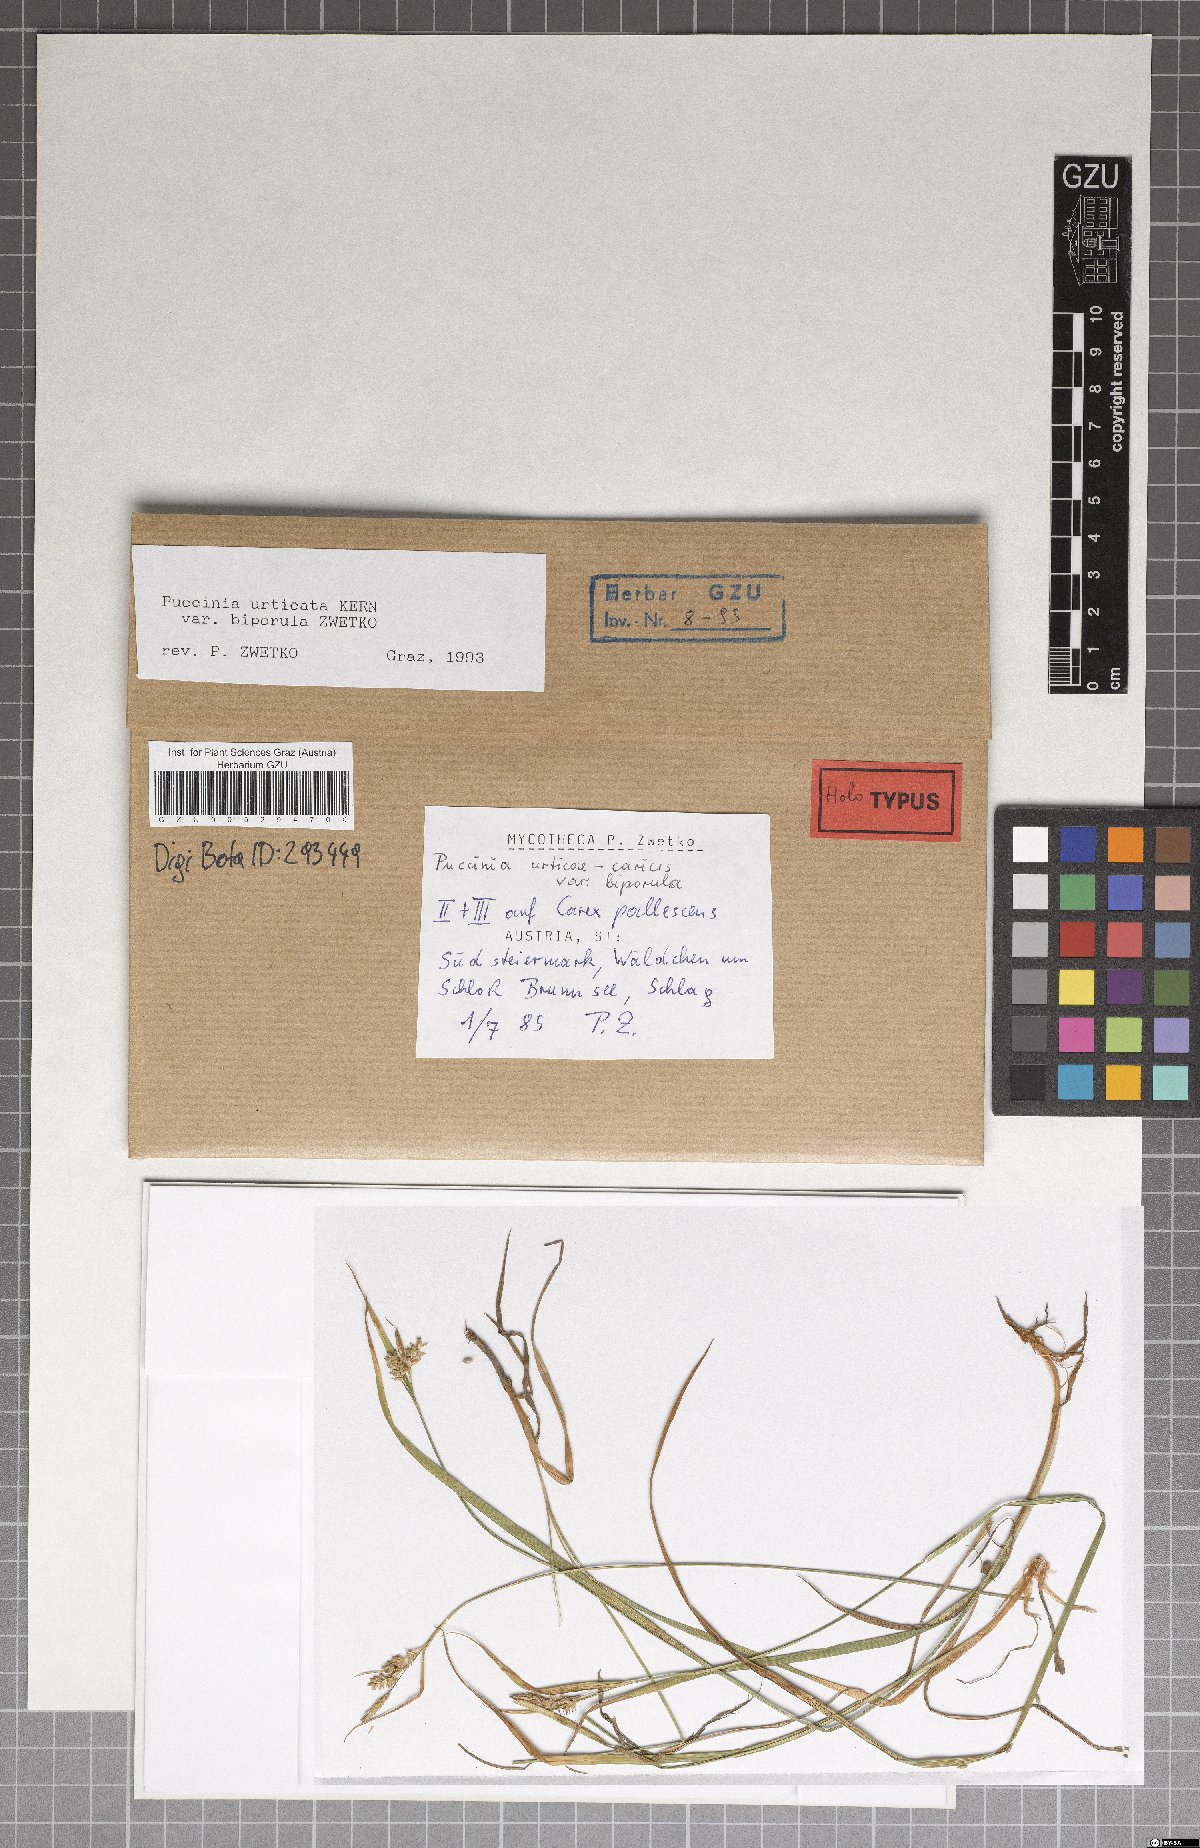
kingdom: Fungi
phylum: Basidiomycota
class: Pucciniomycetes
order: Pucciniales
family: Pucciniaceae
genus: Puccinia
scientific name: Puccinia biporospora
